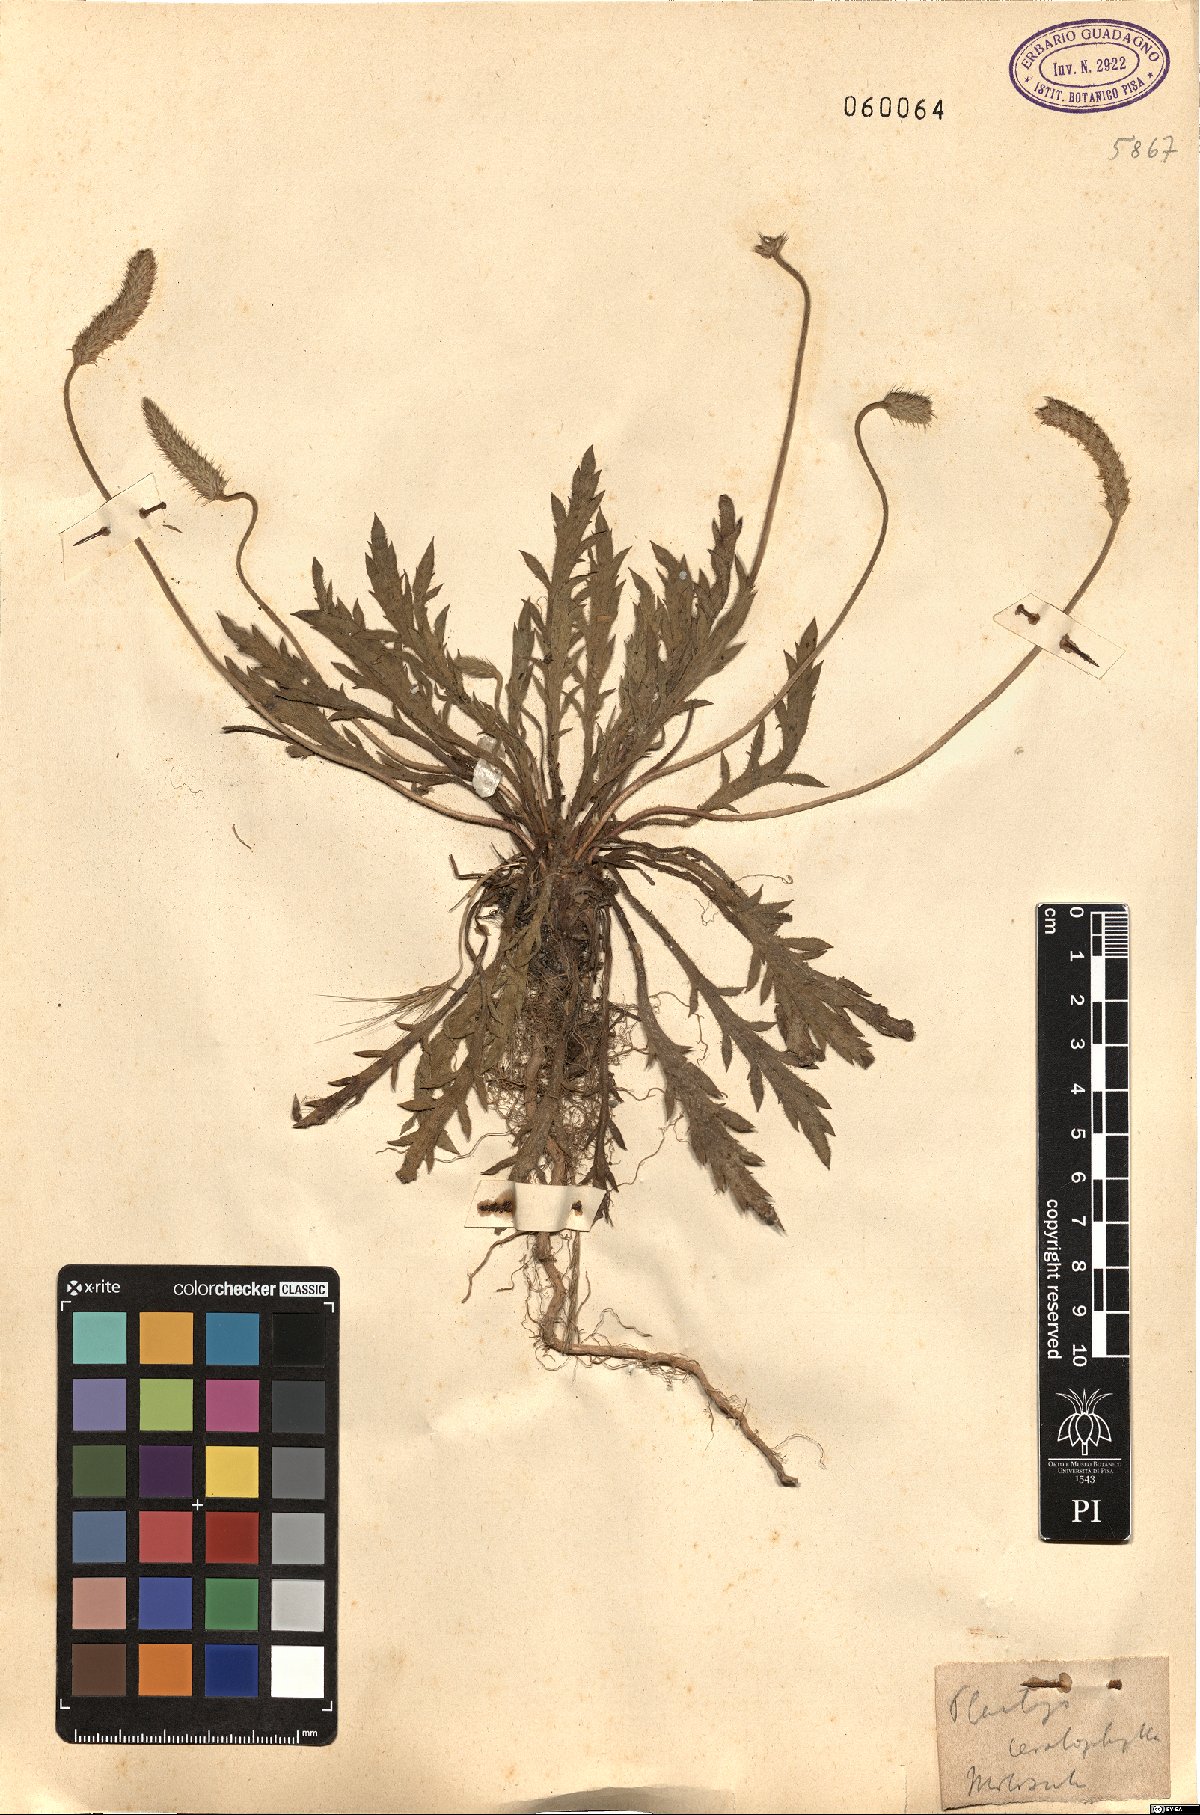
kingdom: Plantae
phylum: Tracheophyta
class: Magnoliopsida
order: Lamiales
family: Plantaginaceae
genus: Plantago
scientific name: Plantago coronopus
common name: Buck's-horn plantain
